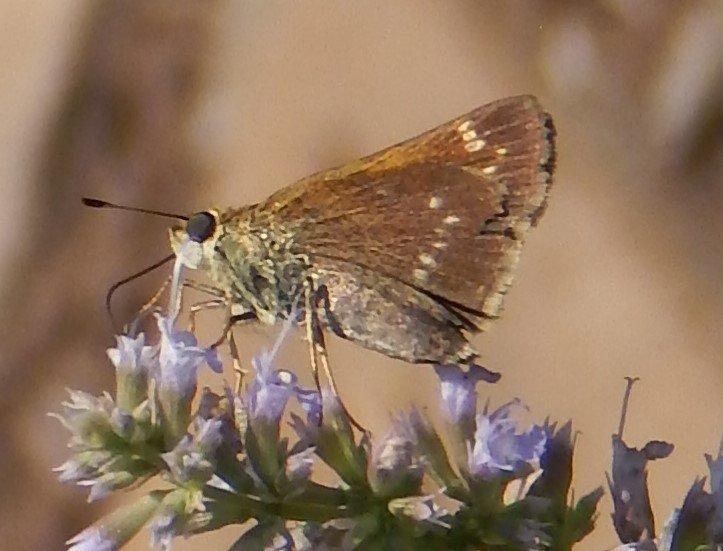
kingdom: Animalia
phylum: Arthropoda
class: Insecta
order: Lepidoptera
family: Hesperiidae
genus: Polites
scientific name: Polites
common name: Crossline Skipper
